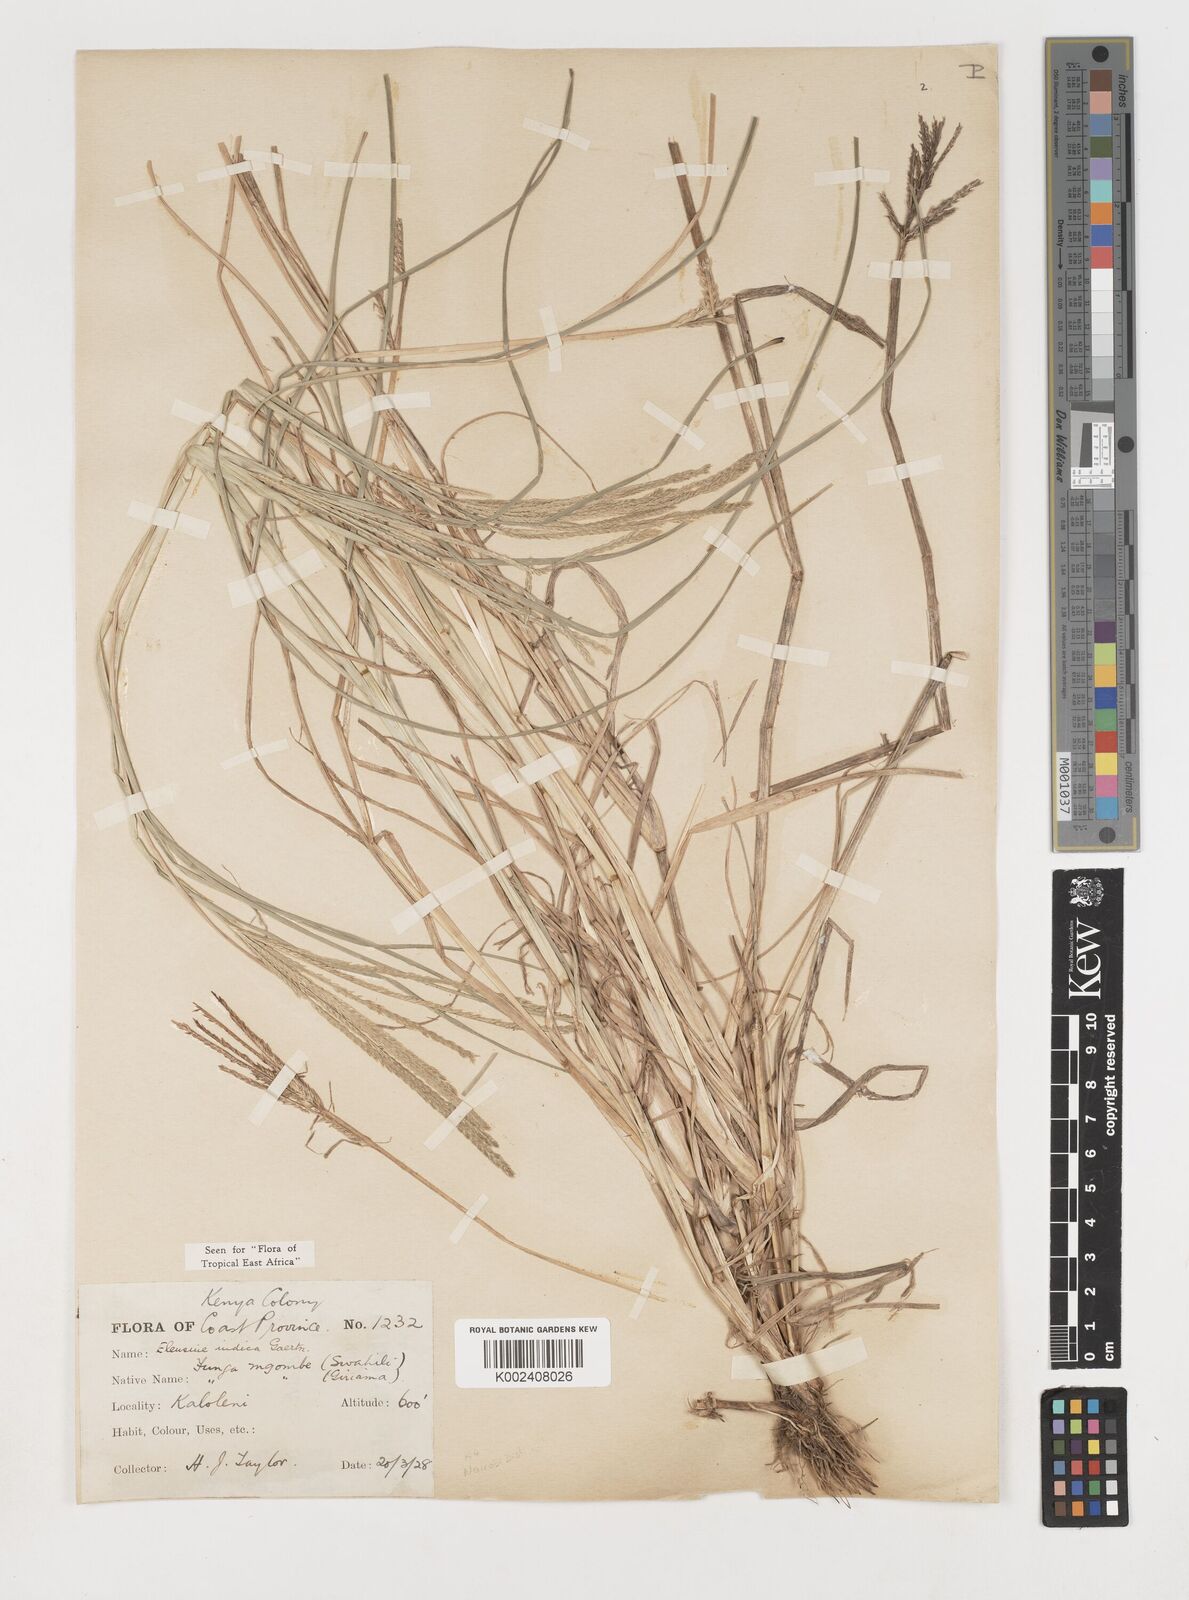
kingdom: Plantae
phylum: Tracheophyta
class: Liliopsida
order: Poales
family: Poaceae
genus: Eleusine
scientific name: Eleusine indica
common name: Yard-grass
